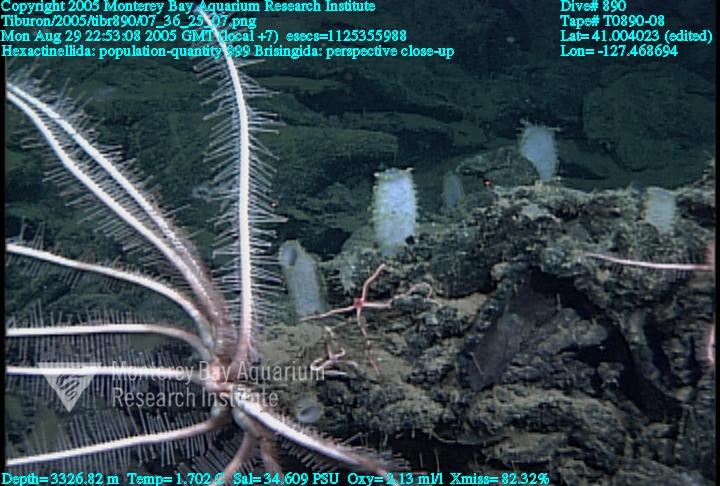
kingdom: Animalia
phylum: Porifera
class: Hexactinellida
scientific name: Hexactinellida
